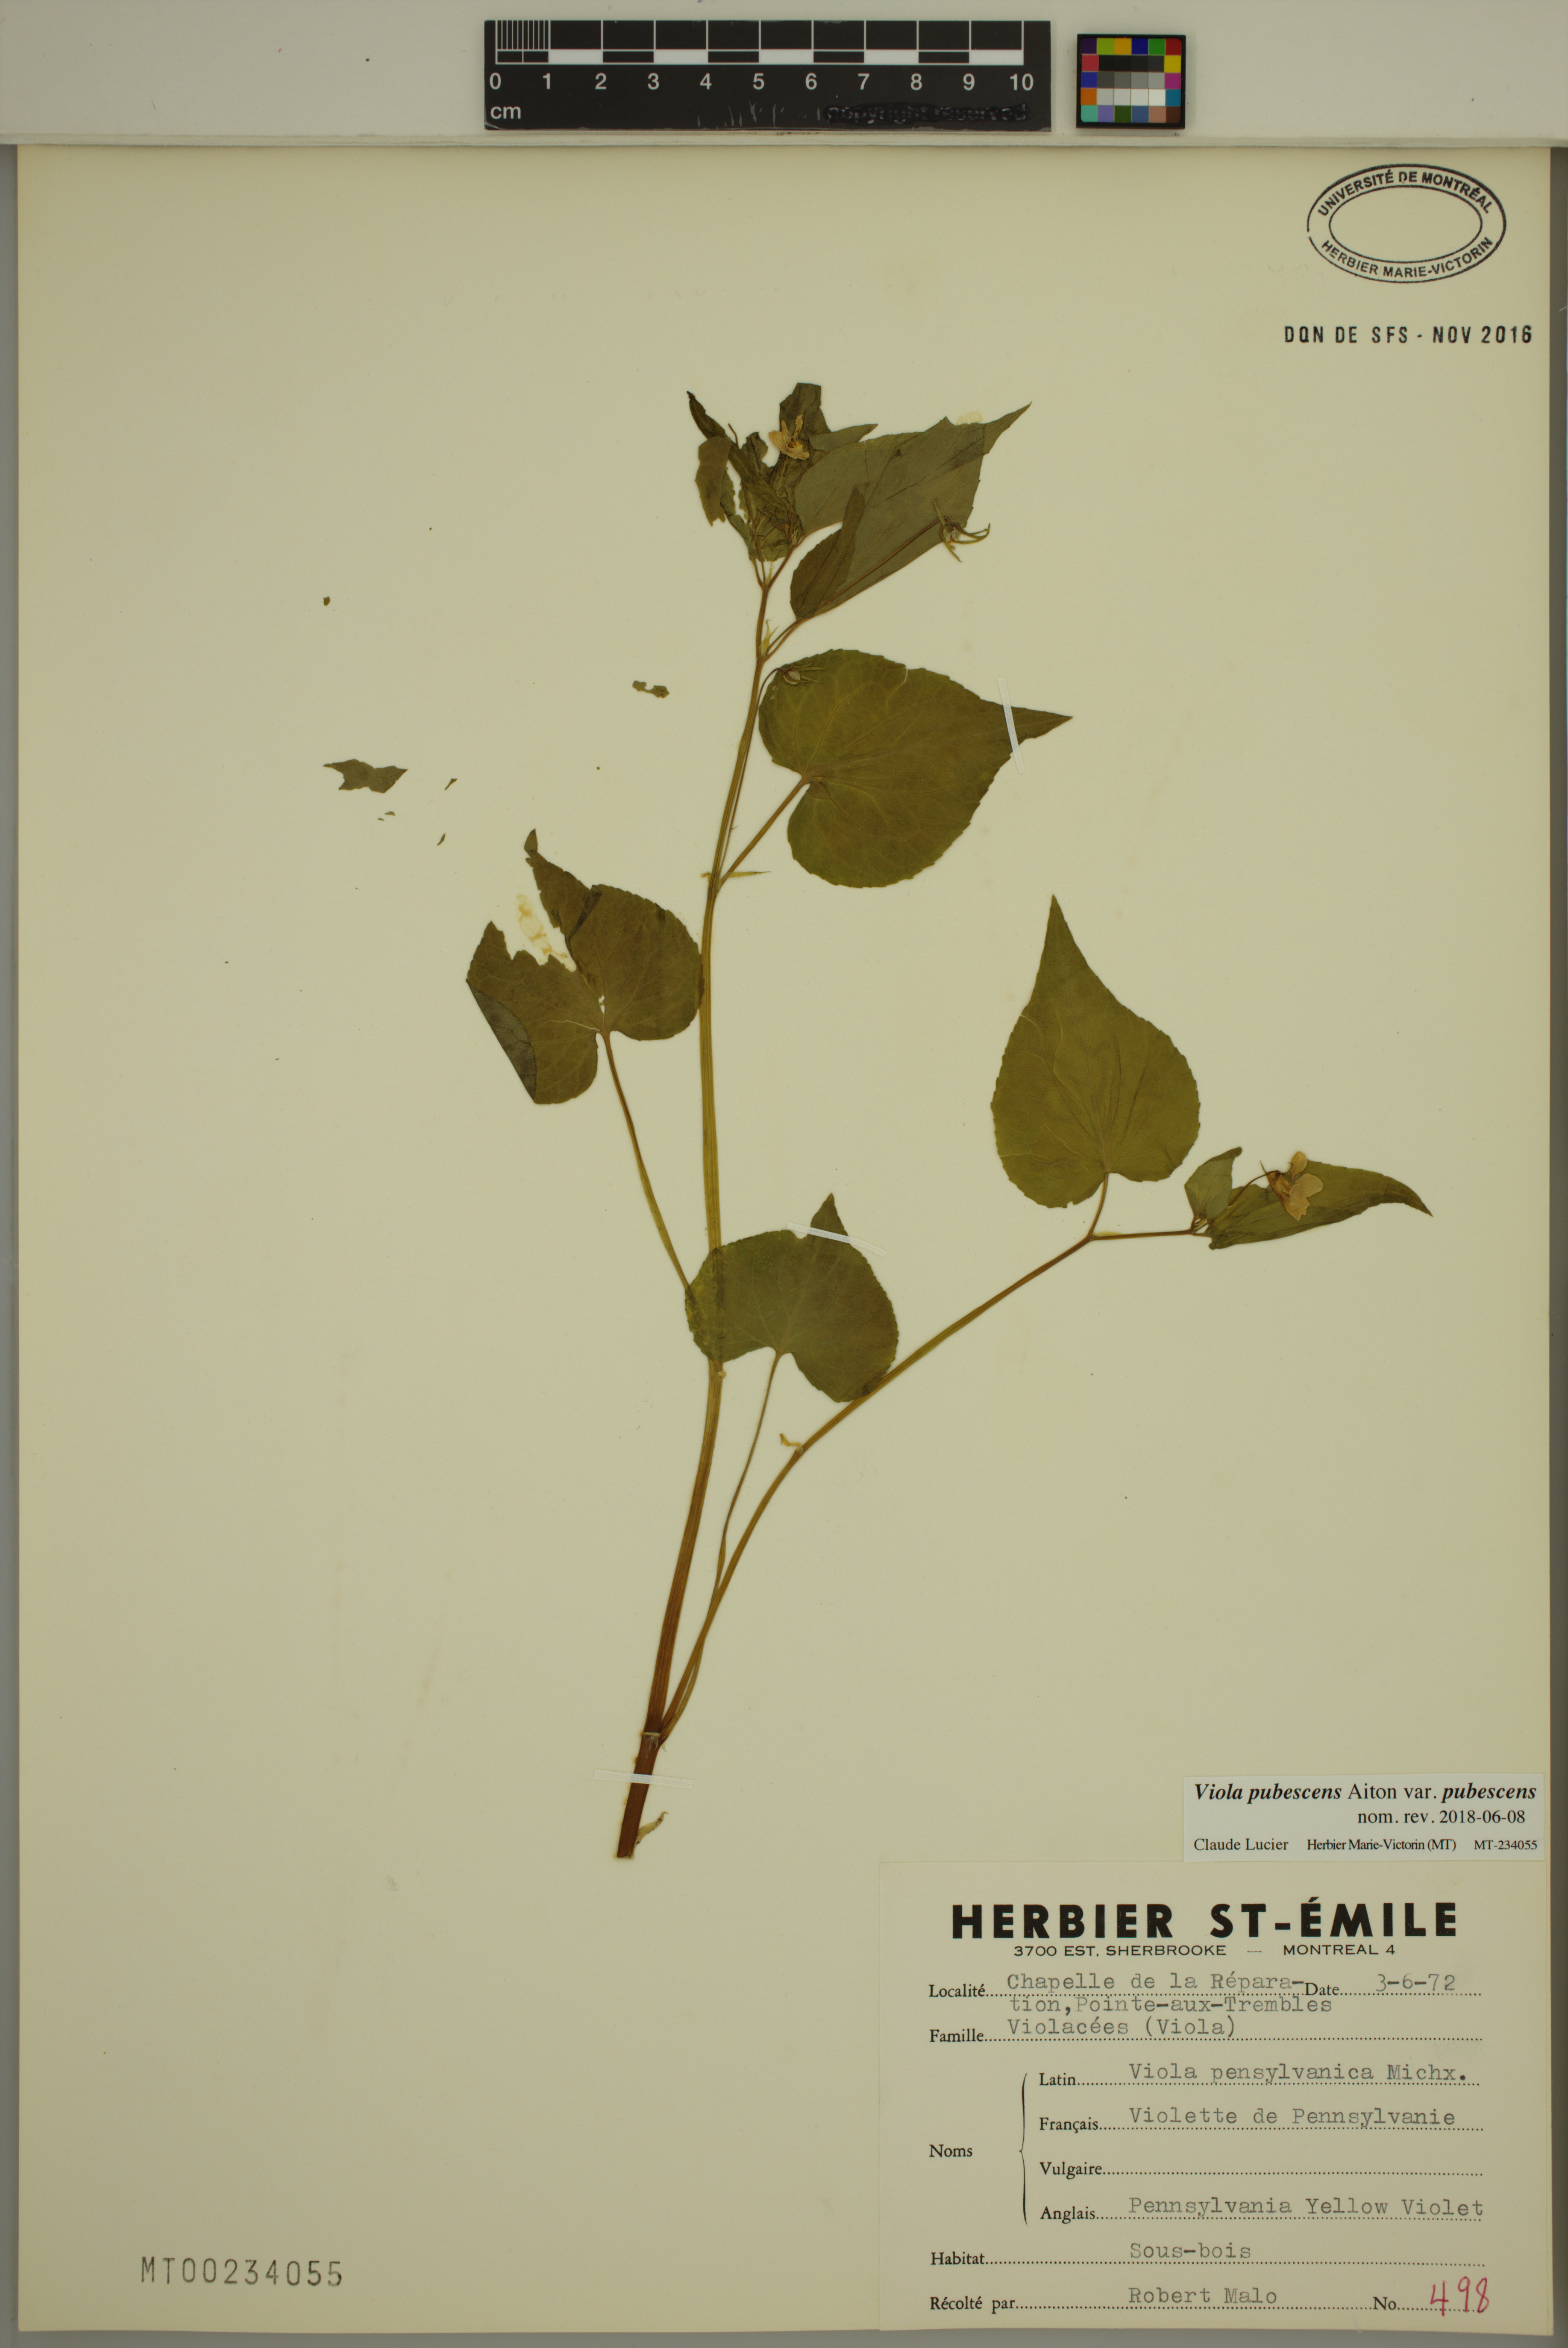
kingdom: Plantae
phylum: Tracheophyta
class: Magnoliopsida
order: Malpighiales
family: Violaceae
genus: Viola
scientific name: Viola pubescens
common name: Yellow forest violet
